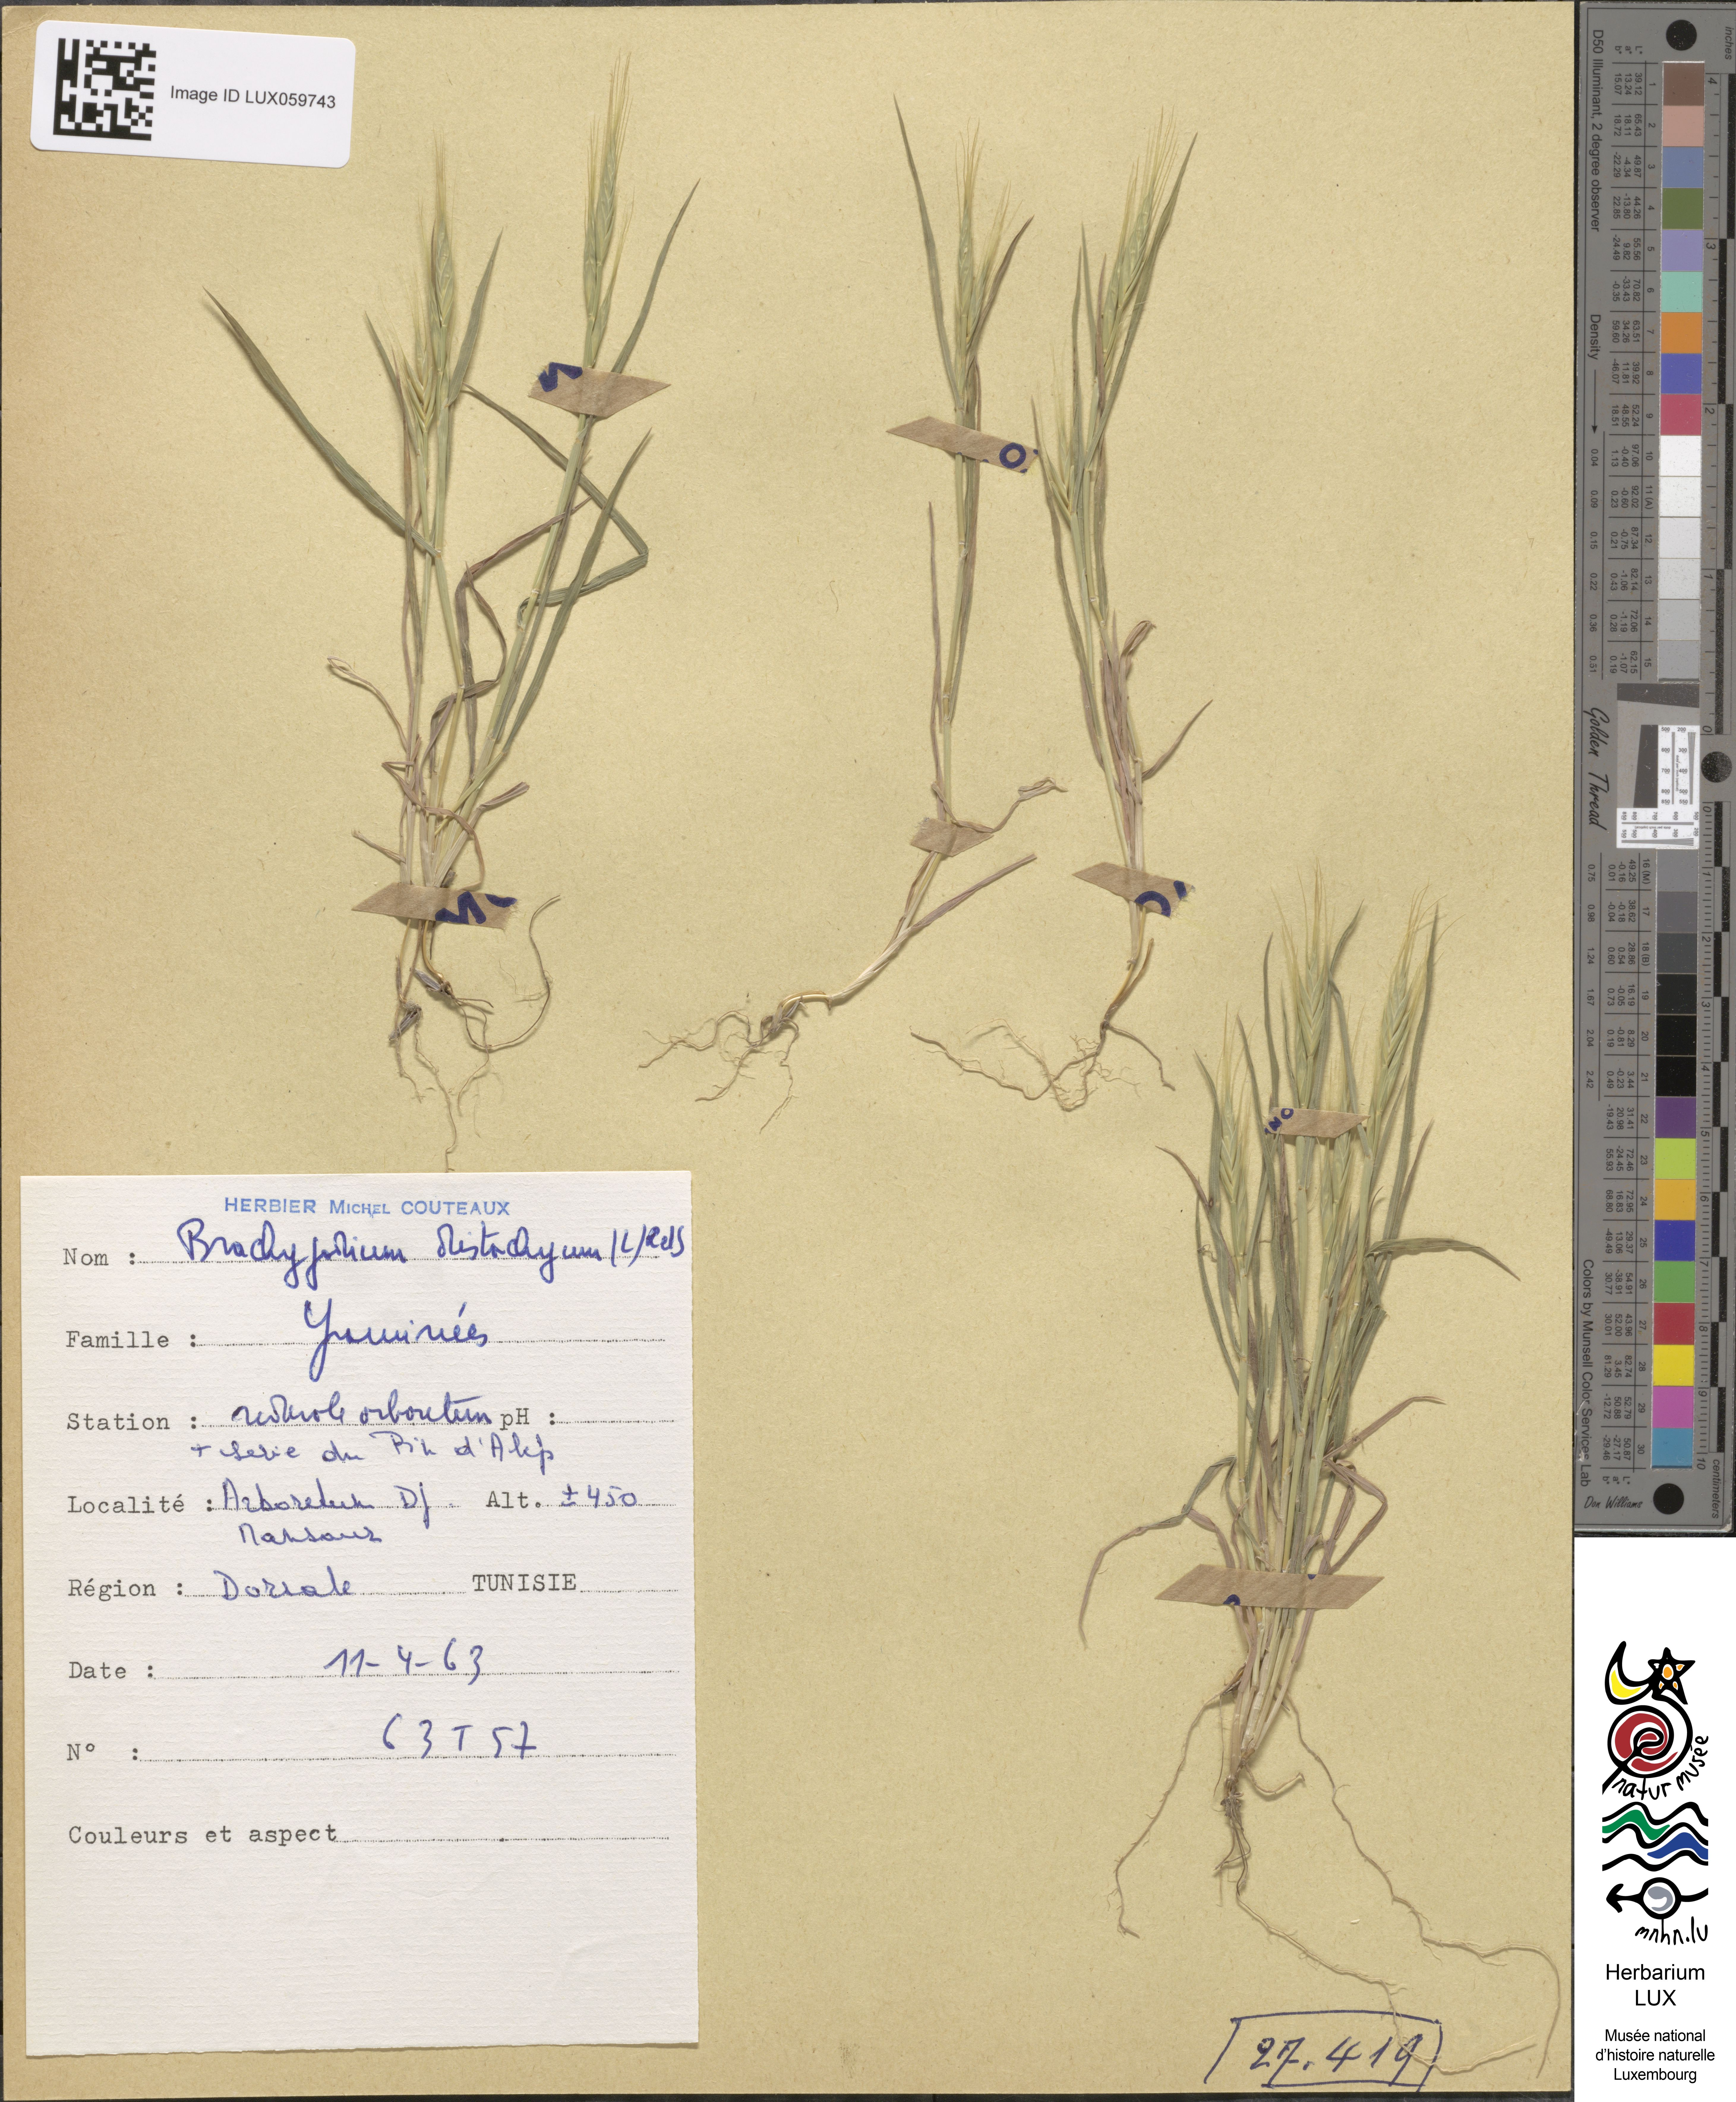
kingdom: Plantae
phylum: Tracheophyta
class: Liliopsida
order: Poales
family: Poaceae
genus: Brachypodium
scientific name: Brachypodium distachyon
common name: Stiff brome
